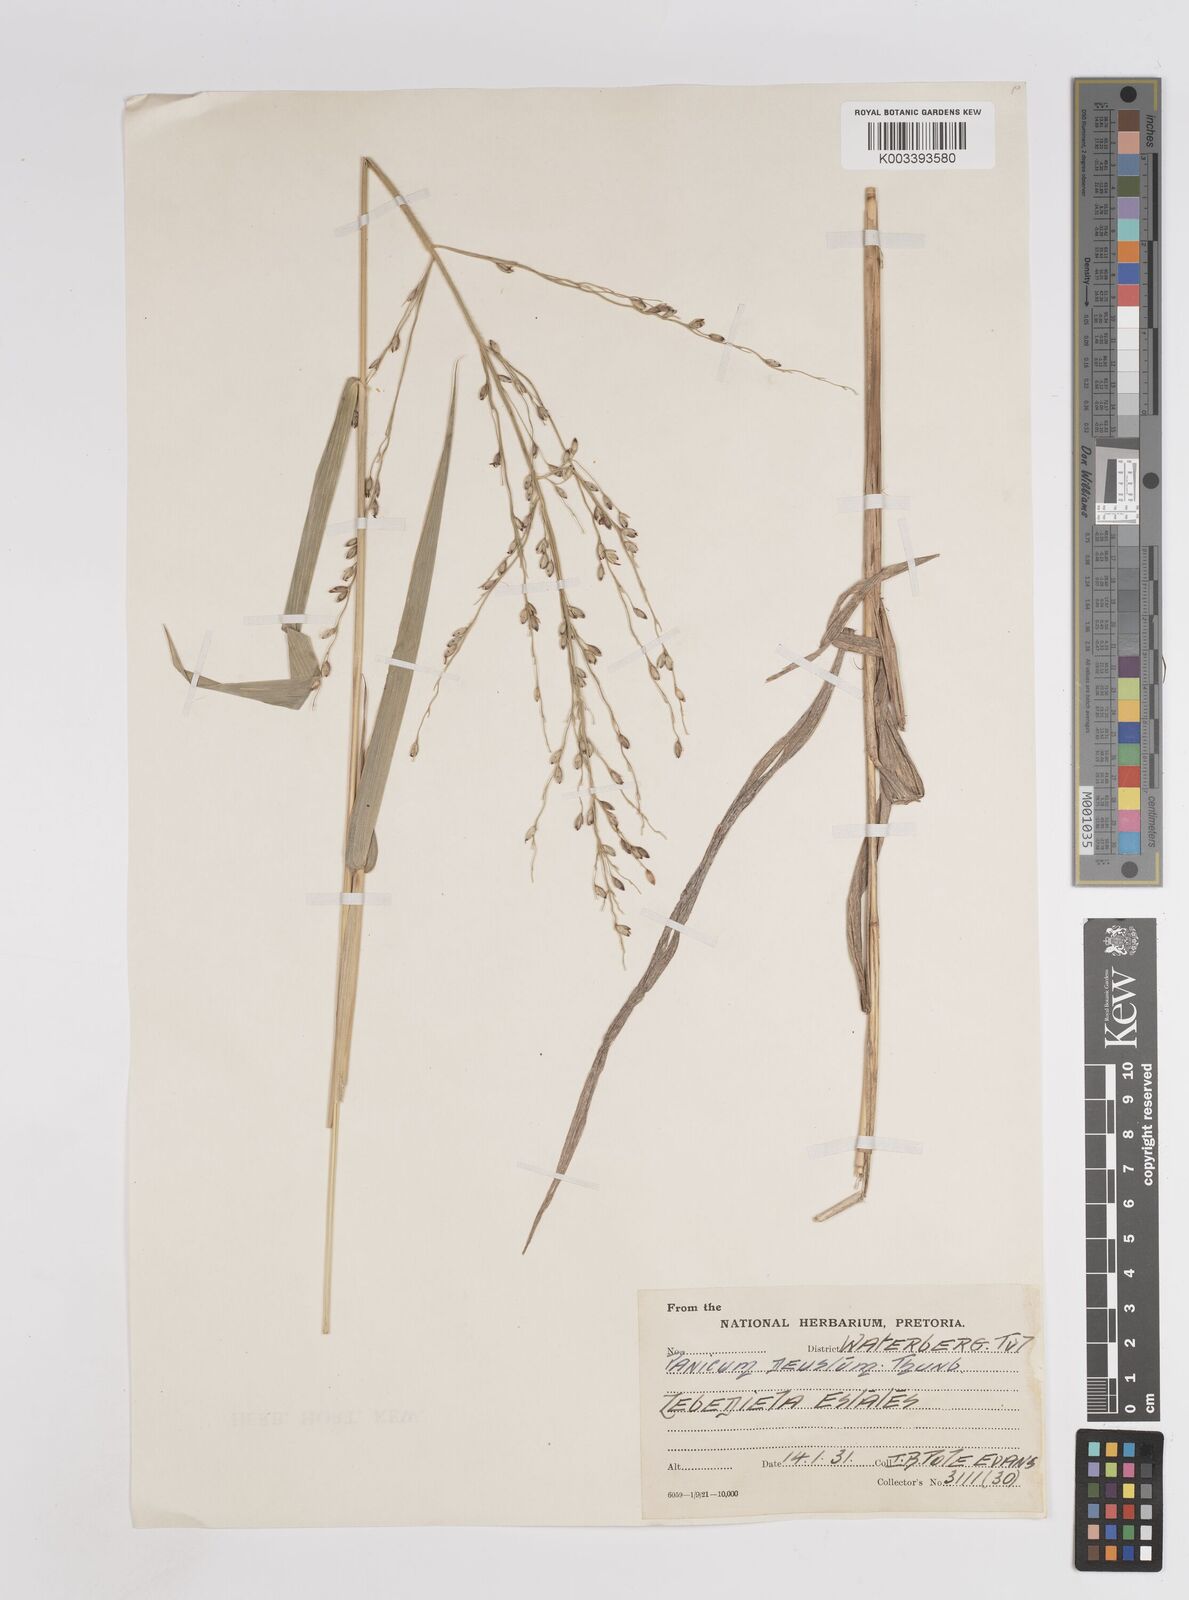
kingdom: Plantae
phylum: Tracheophyta
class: Liliopsida
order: Poales
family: Poaceae
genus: Megathyrsus
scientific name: Megathyrsus maximus
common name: Guineagrass
